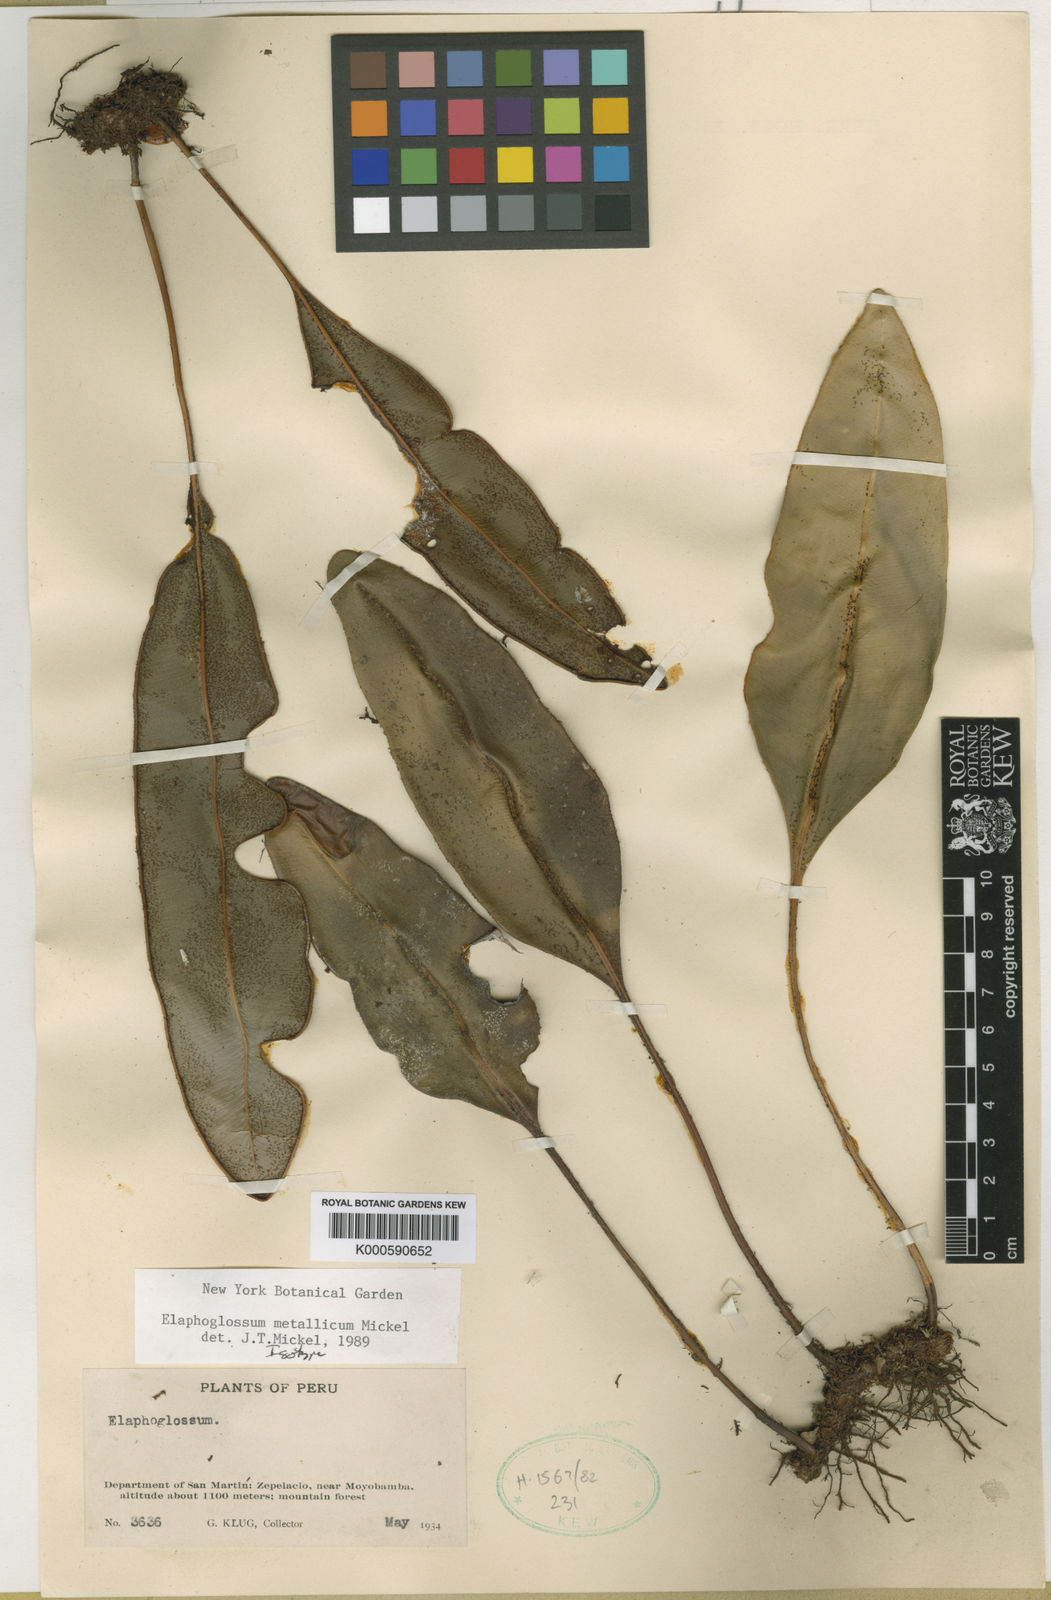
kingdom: Plantae
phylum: Tracheophyta
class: Polypodiopsida
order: Polypodiales
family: Dryopteridaceae
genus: Elaphoglossum
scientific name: Elaphoglossum metallicum
